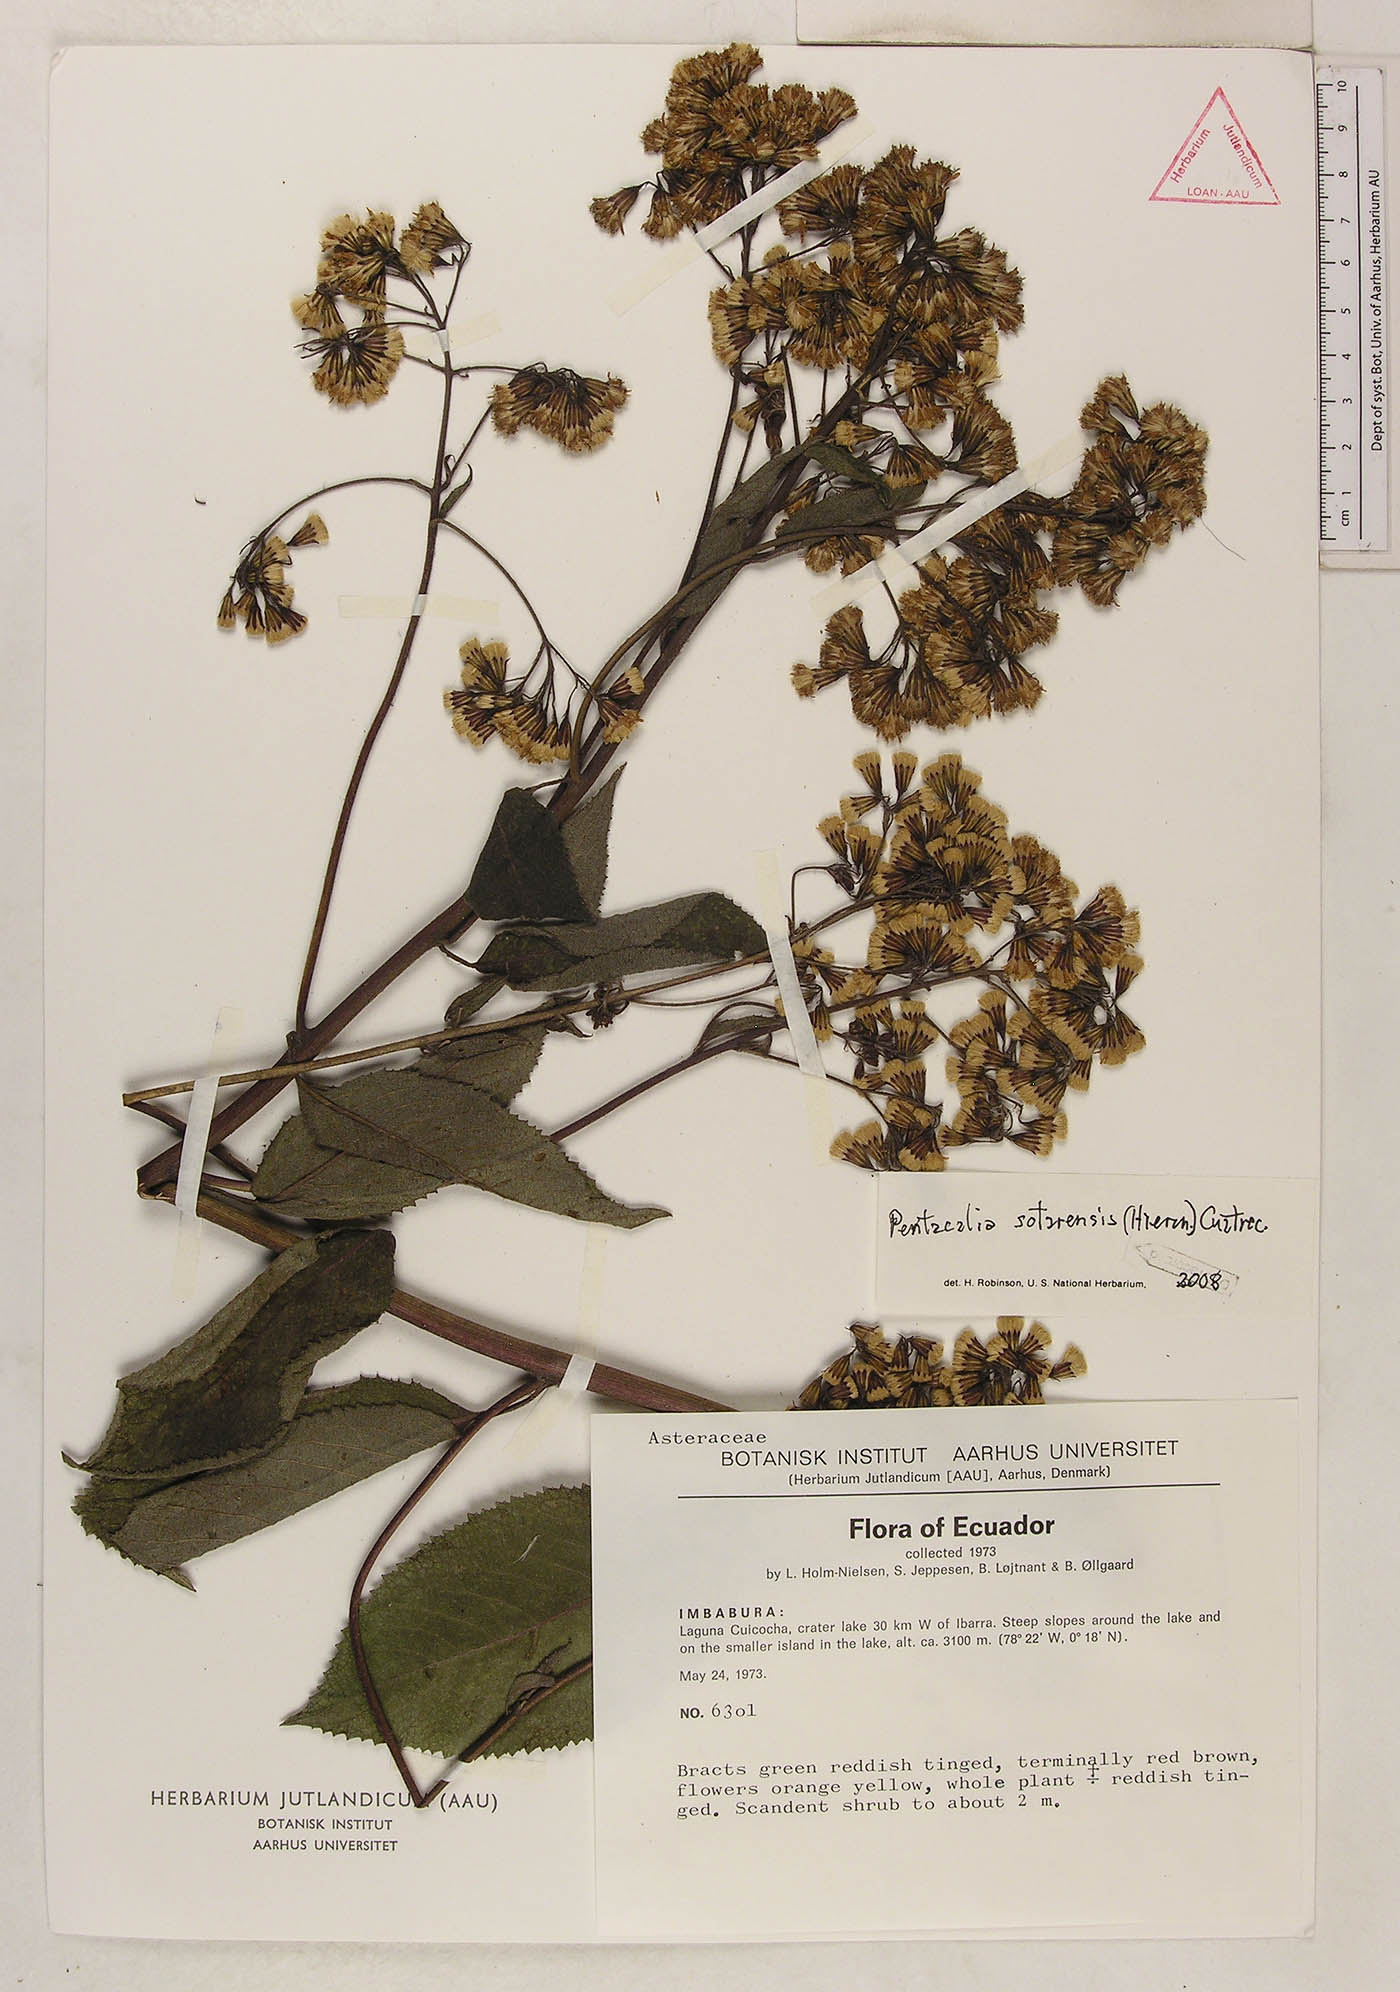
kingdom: Plantae
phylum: Tracheophyta
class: Magnoliopsida
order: Asterales
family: Asteraceae
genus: Dendrophorbium
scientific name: Dendrophorbium sotarense
